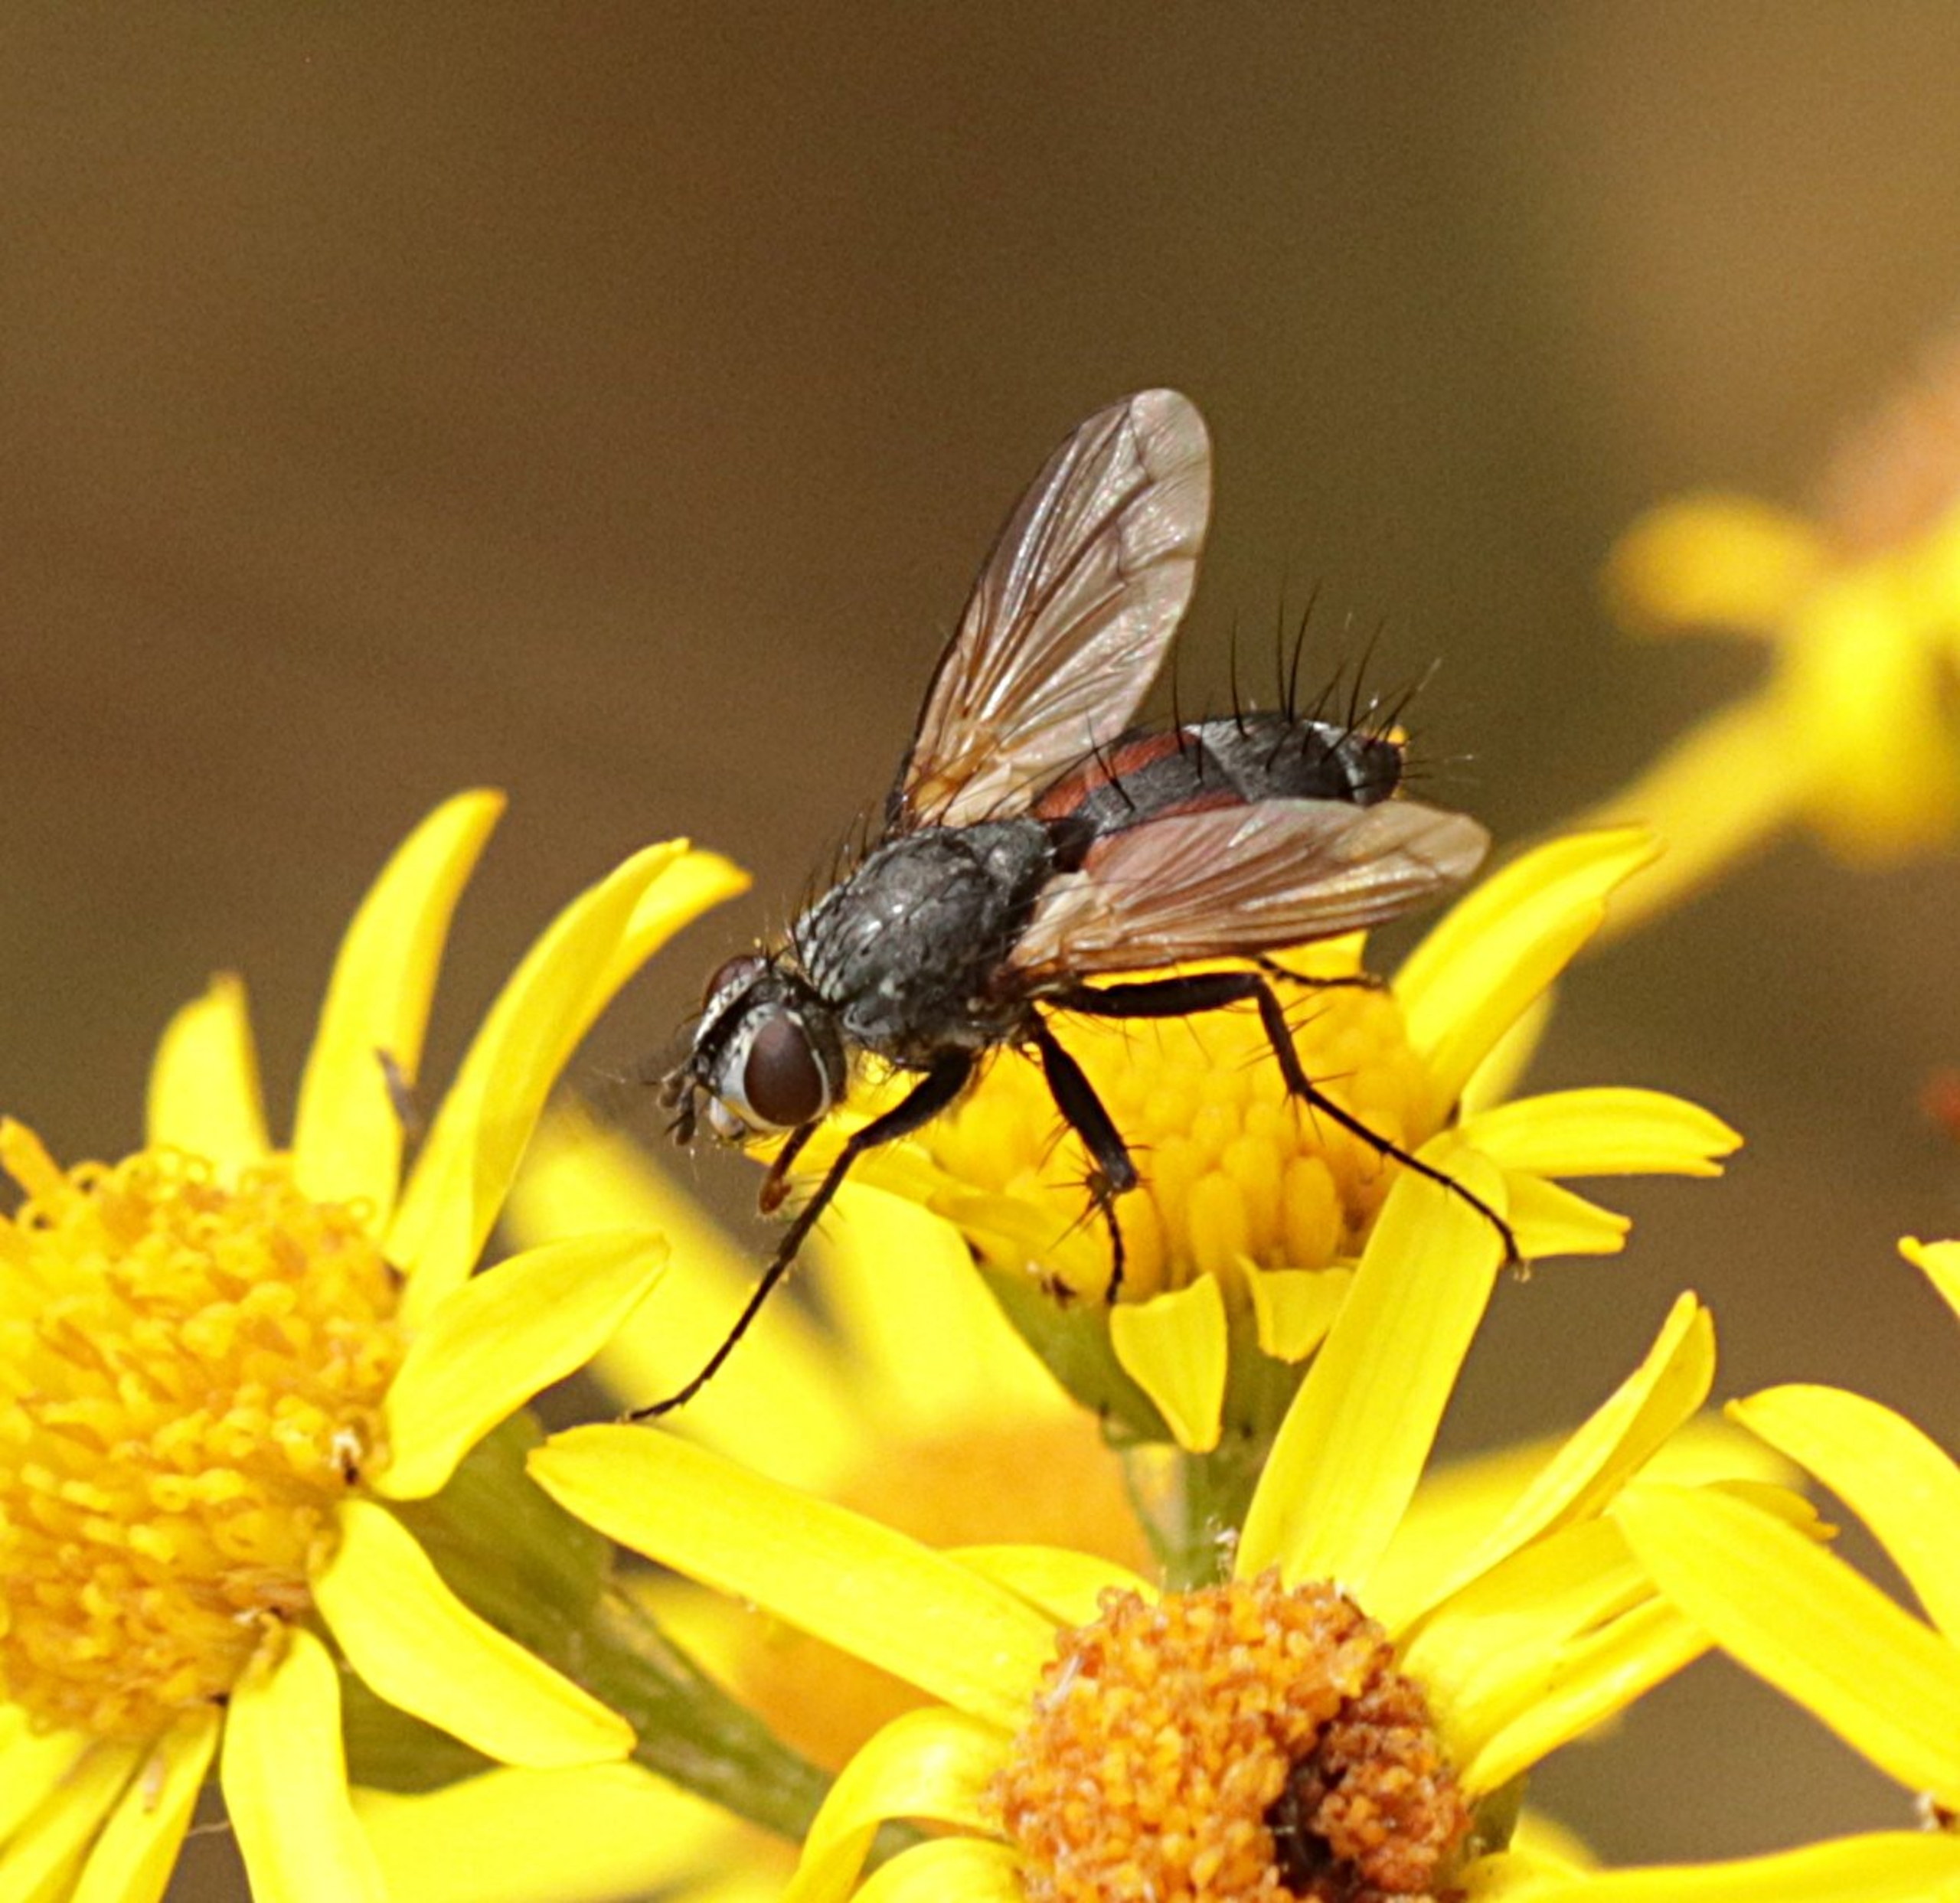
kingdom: Animalia
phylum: Arthropoda
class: Insecta
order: Diptera
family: Tachinidae
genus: Eriothrix
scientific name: Eriothrix rufomaculatus
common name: Rød snylteflue
